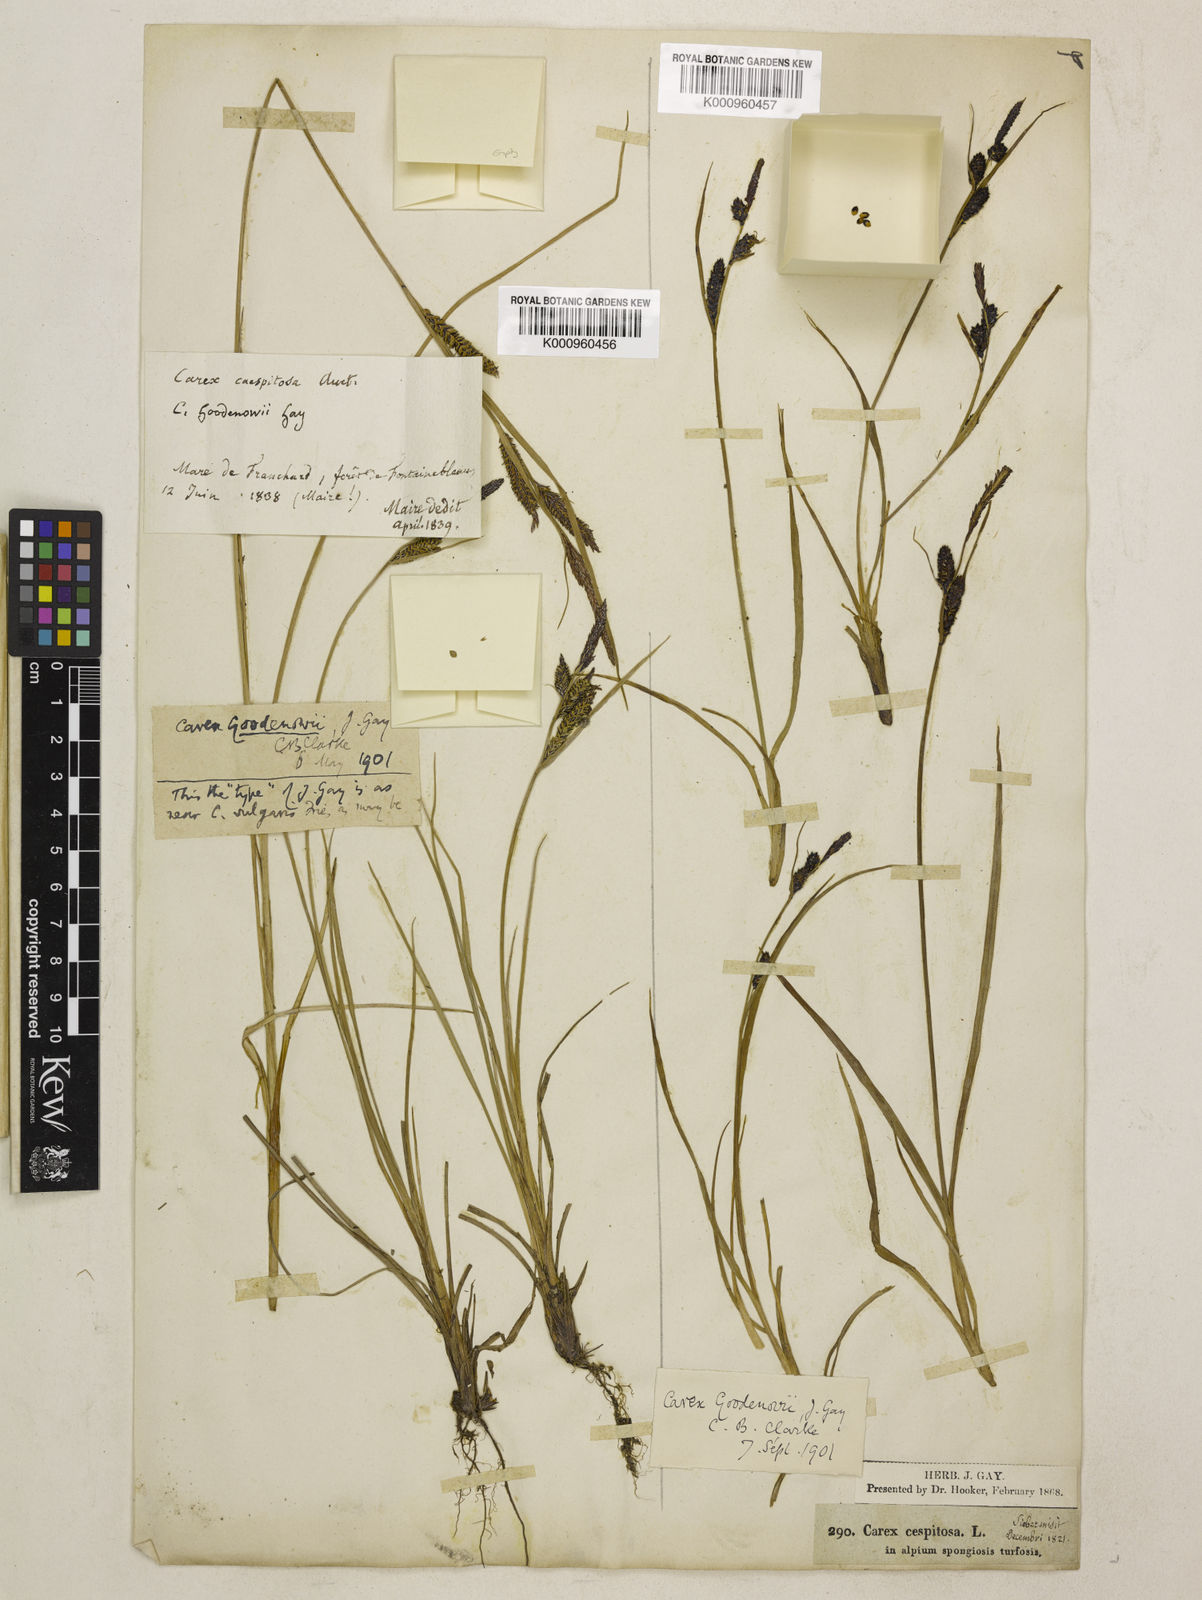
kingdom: Plantae
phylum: Tracheophyta
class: Liliopsida
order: Poales
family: Cyperaceae
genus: Carex
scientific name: Carex nigra
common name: Common sedge
